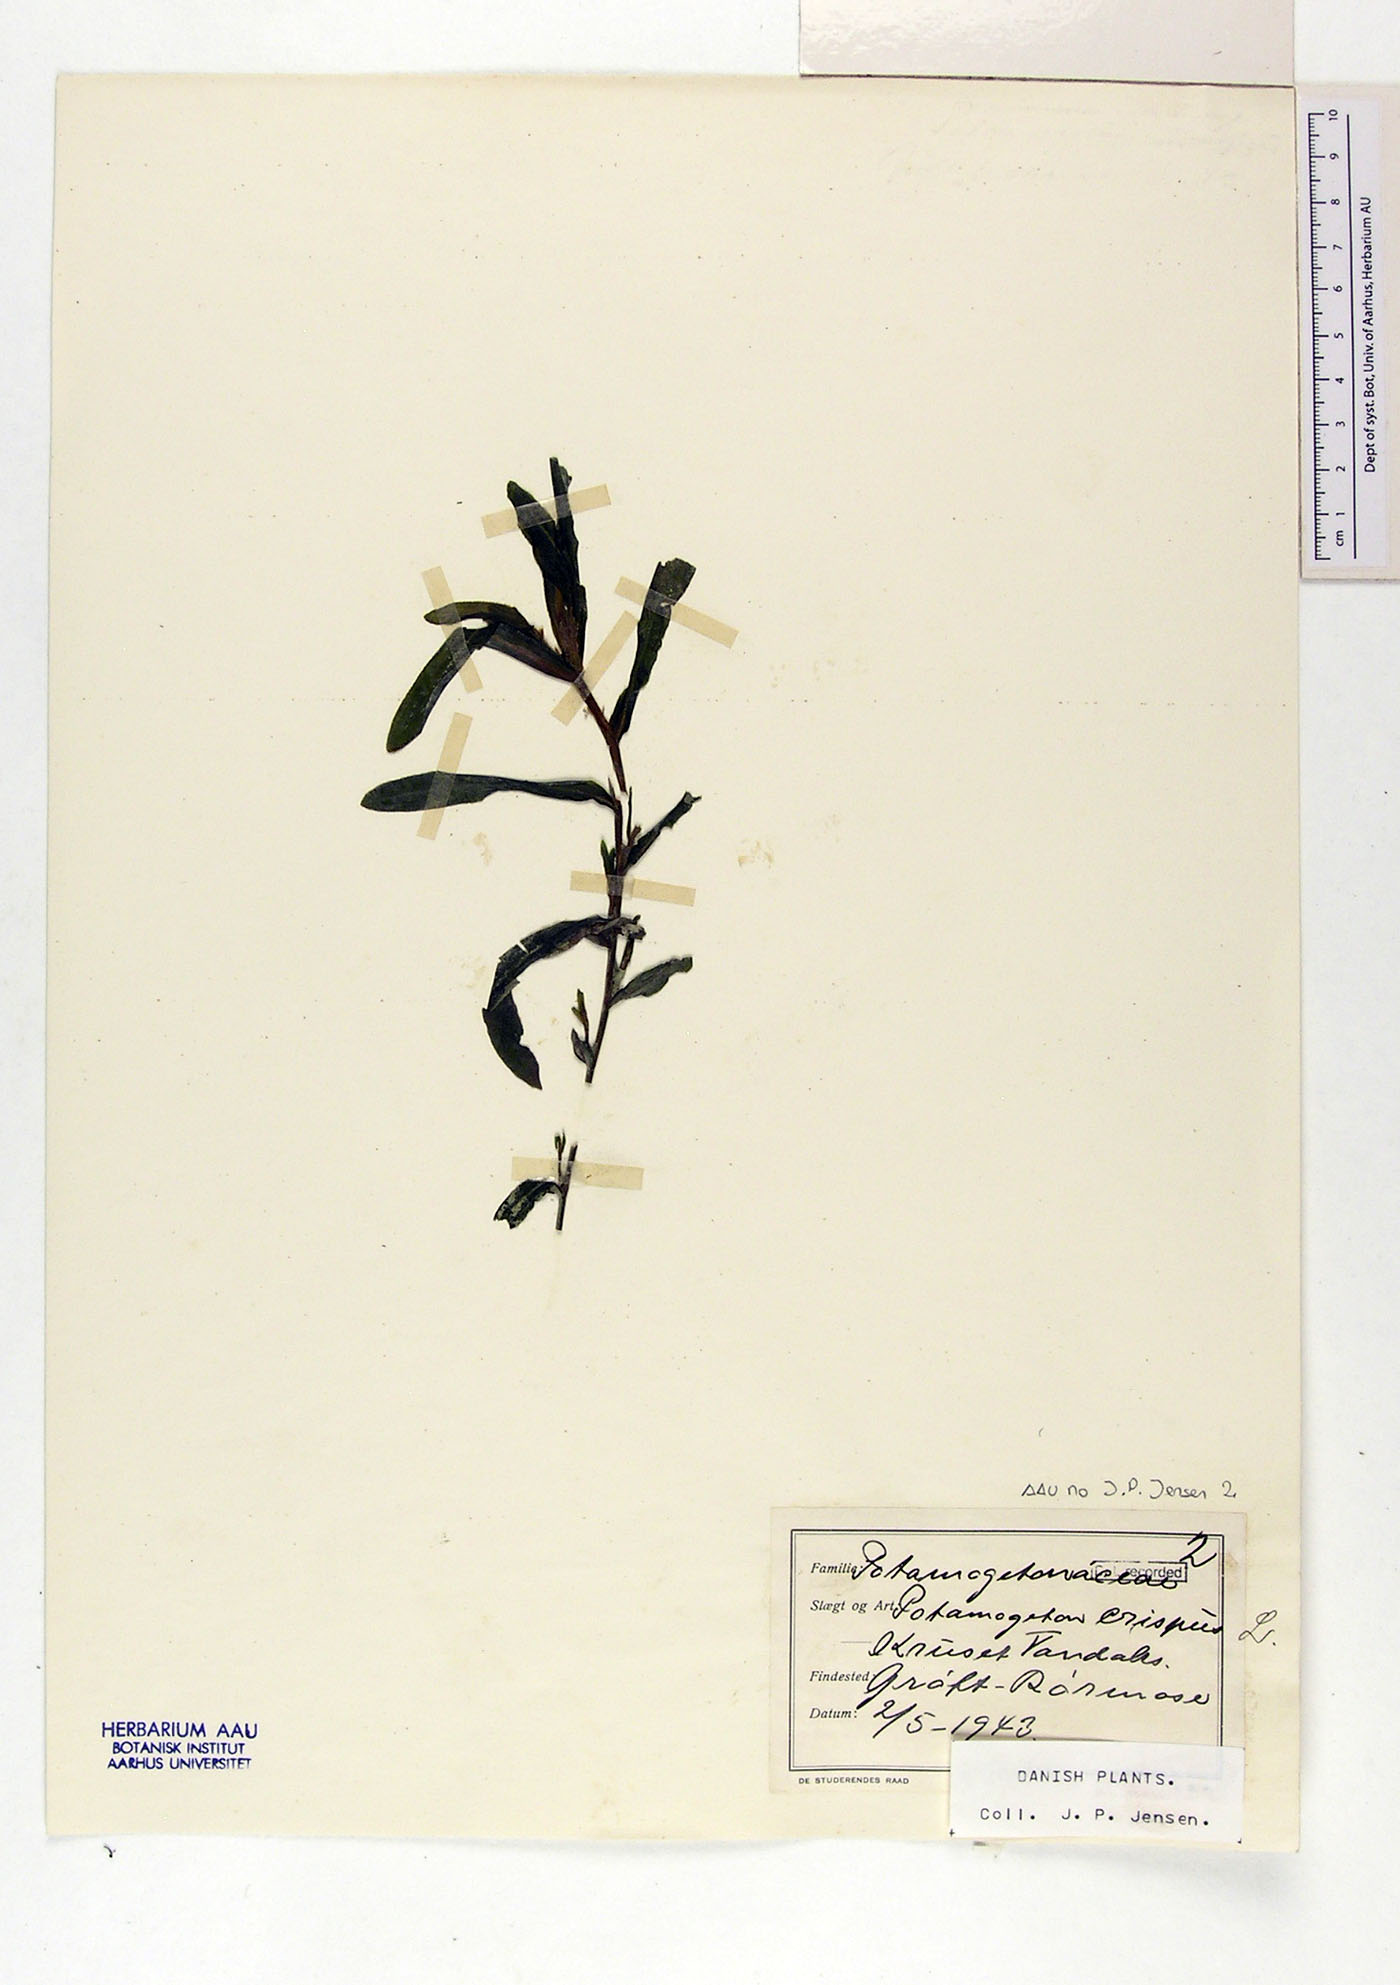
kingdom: Plantae
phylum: Tracheophyta
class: Liliopsida
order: Alismatales
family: Potamogetonaceae
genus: Potamogeton
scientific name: Potamogeton crispus
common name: Curled pondweed
